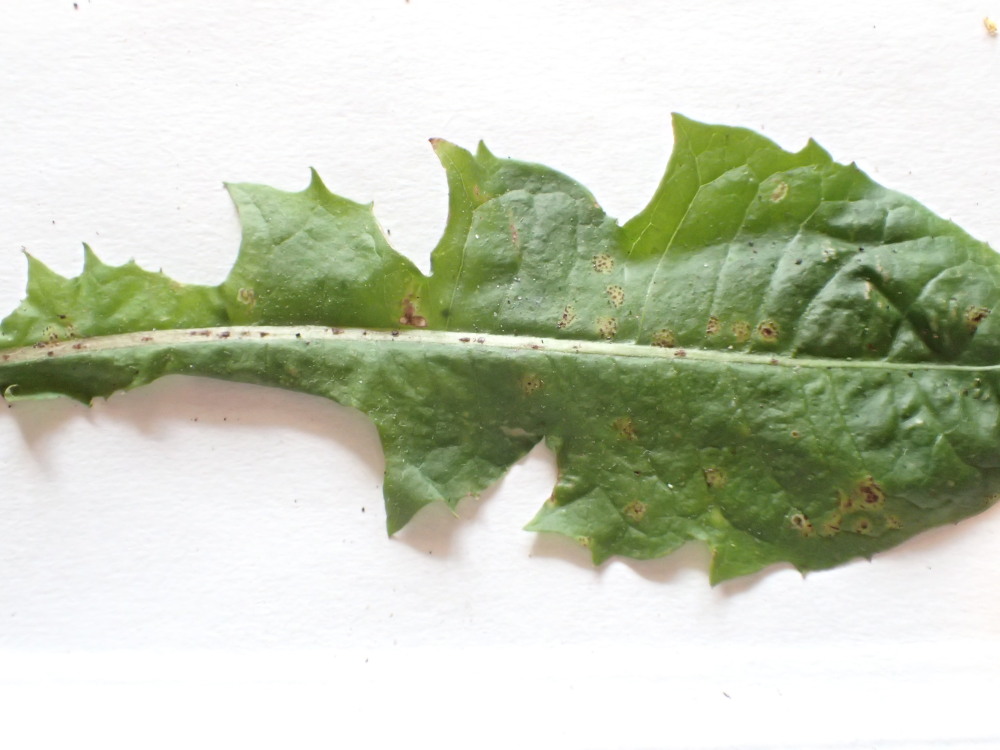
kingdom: Fungi
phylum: Basidiomycota
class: Pucciniomycetes
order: Pucciniales
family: Pucciniaceae
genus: Puccinia
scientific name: Puccinia hieracii
